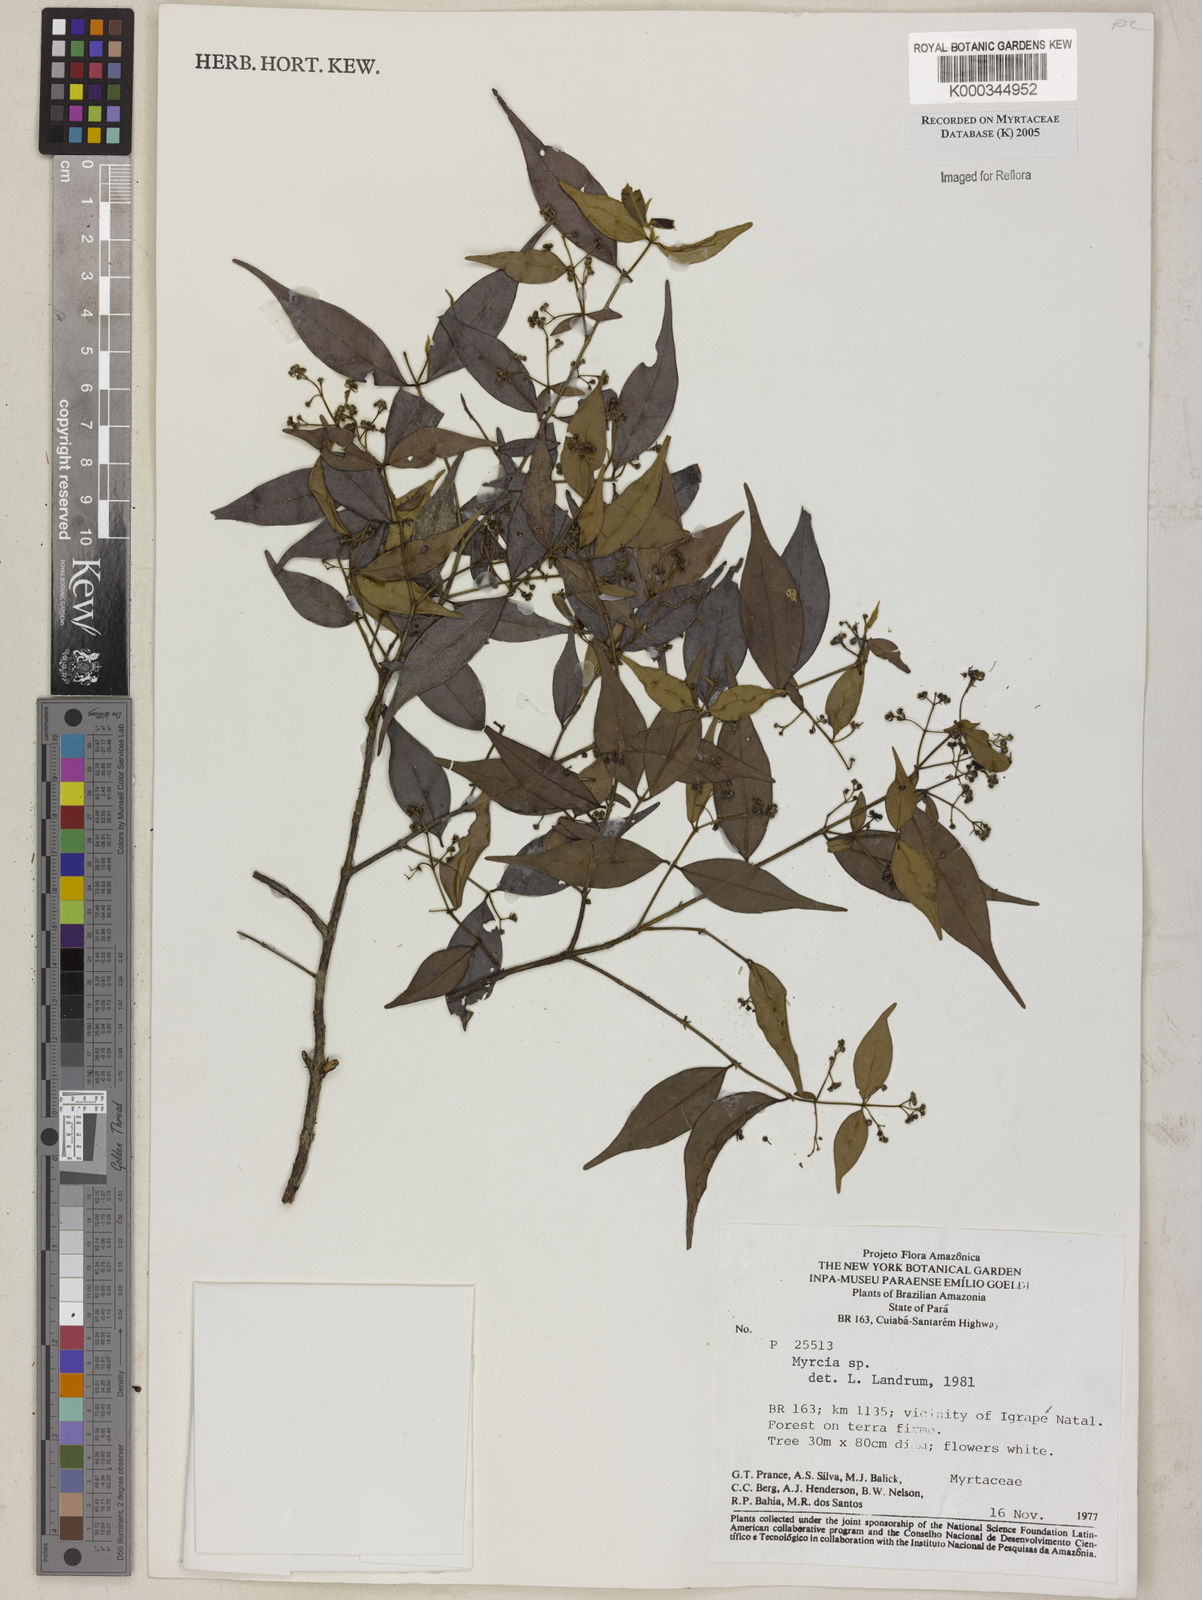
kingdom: Plantae
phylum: Tracheophyta
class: Magnoliopsida
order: Myrtales
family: Myrtaceae
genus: Myrcia
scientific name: Myrcia
